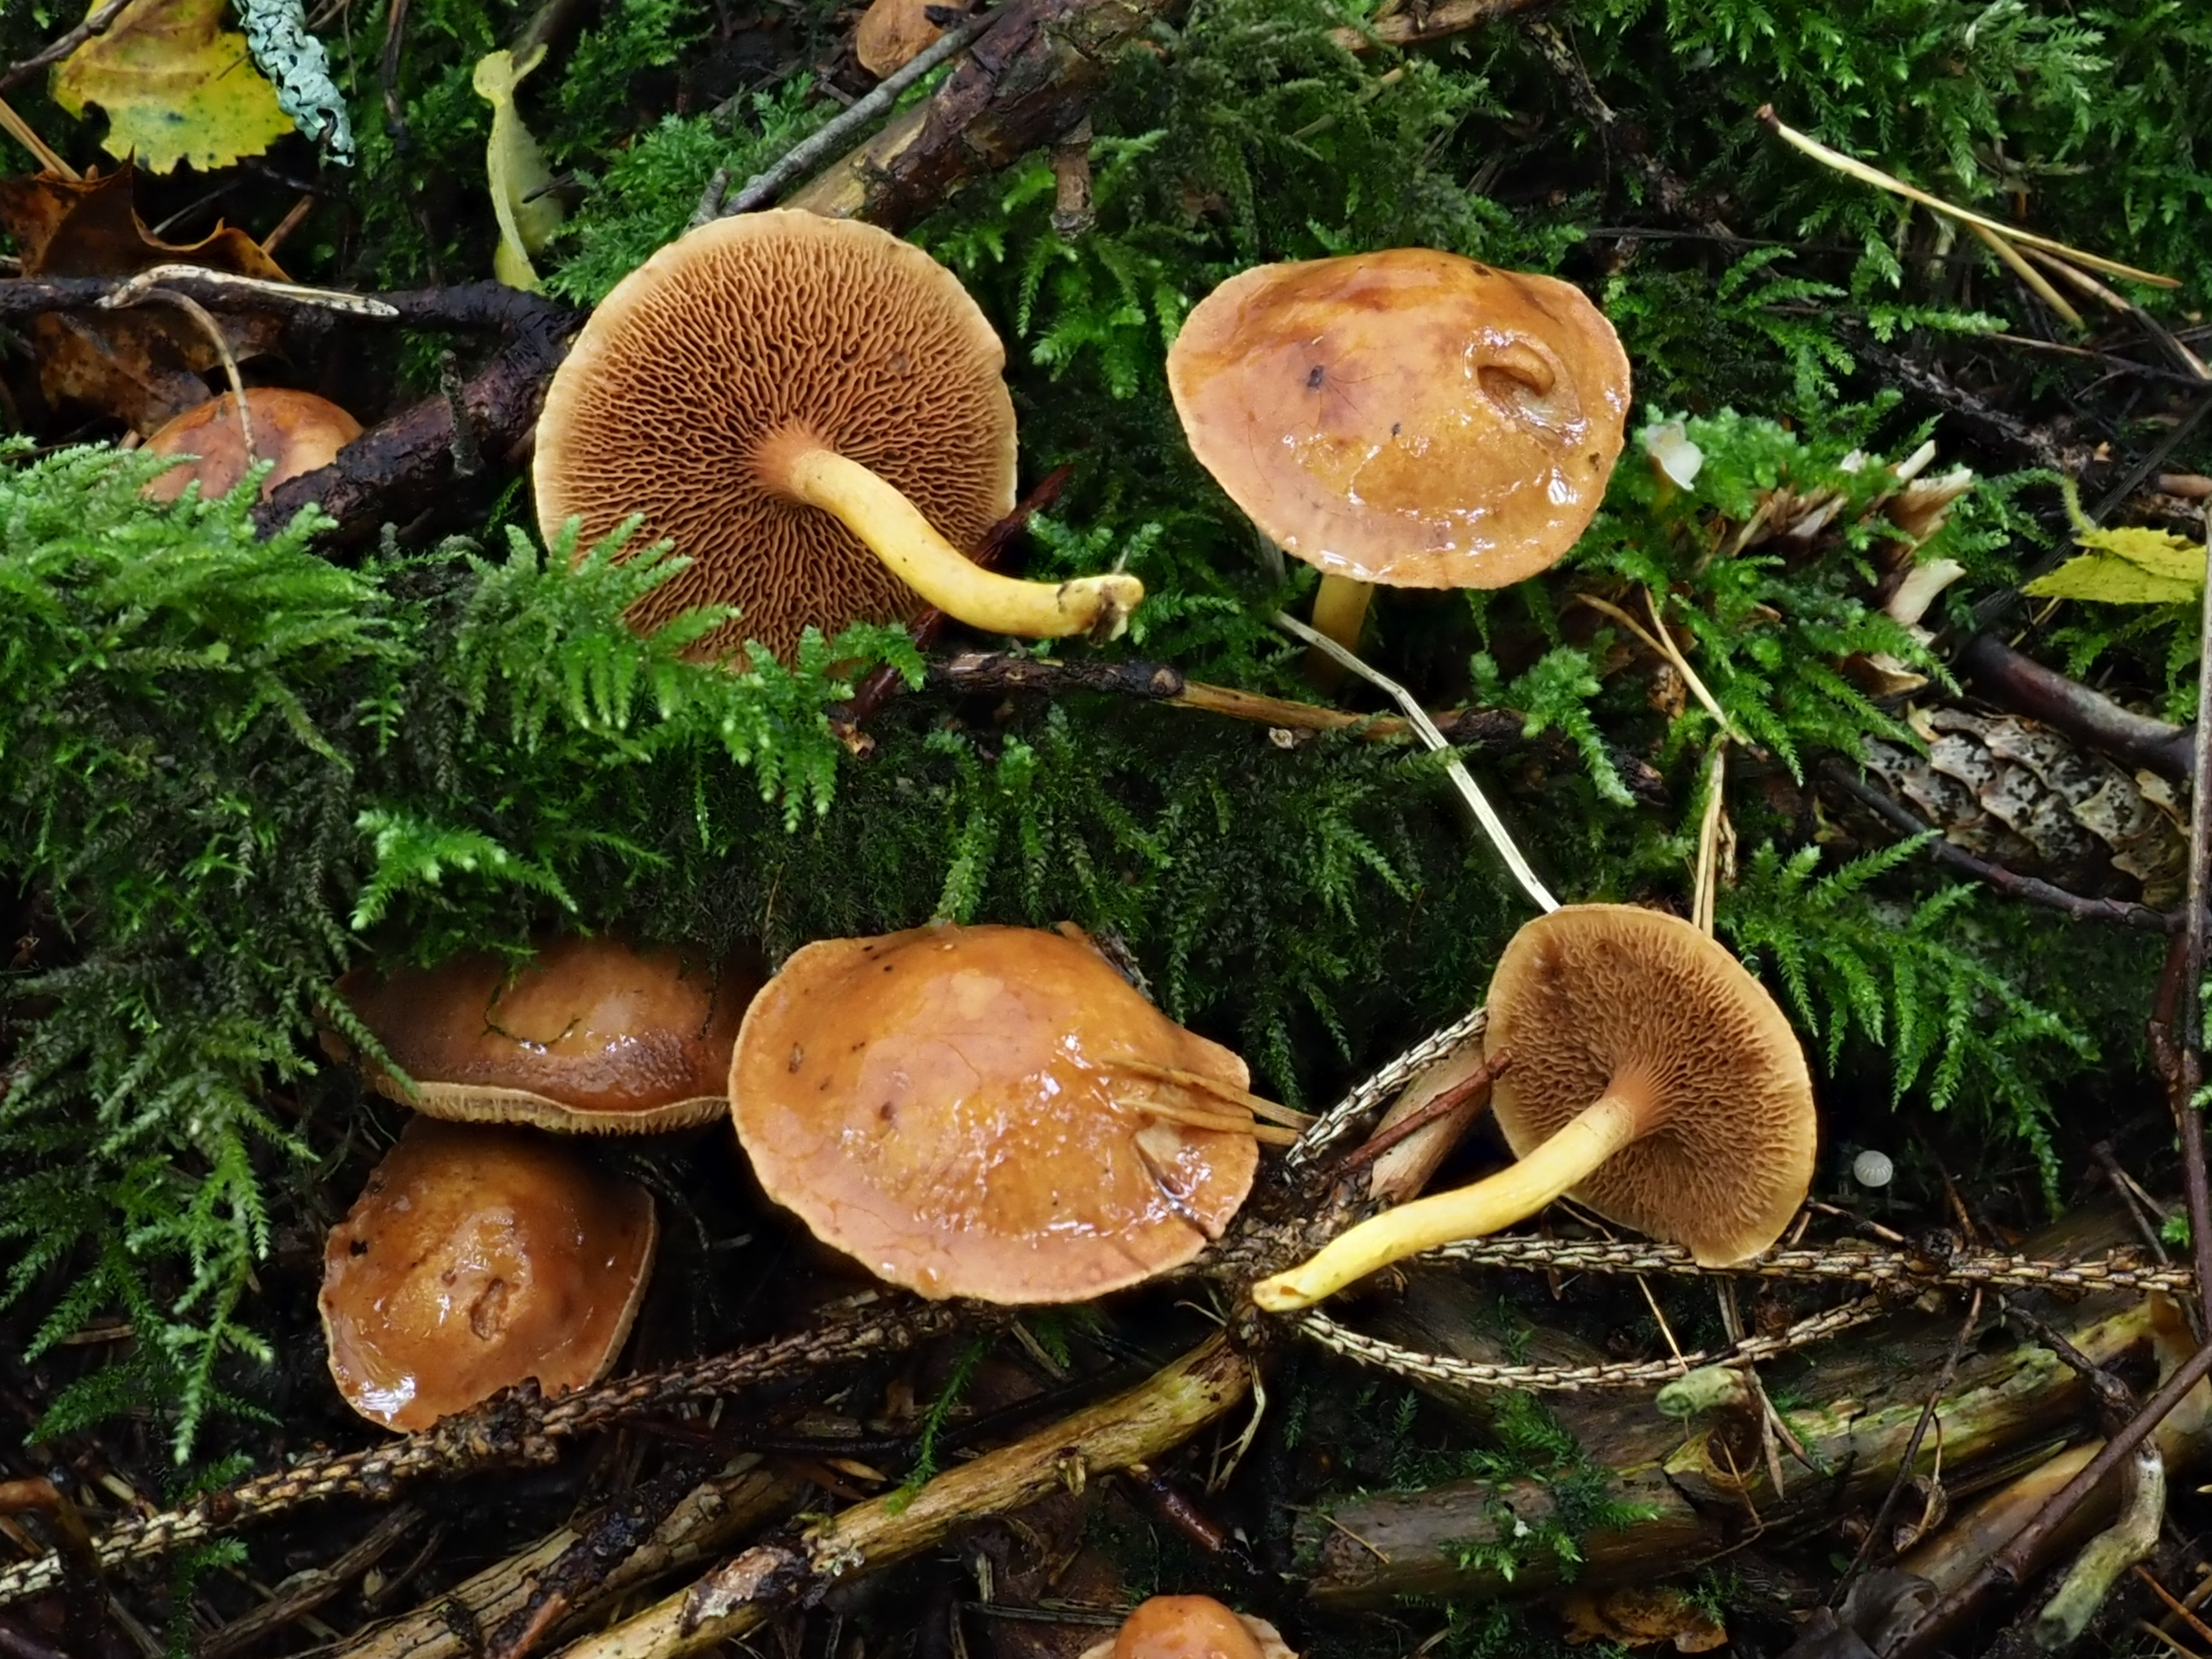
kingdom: Fungi
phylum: Basidiomycota
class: Agaricomycetes
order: Boletales
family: Boletaceae
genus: Chalciporus
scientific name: Chalciporus piperatus
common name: Peppery bolete
